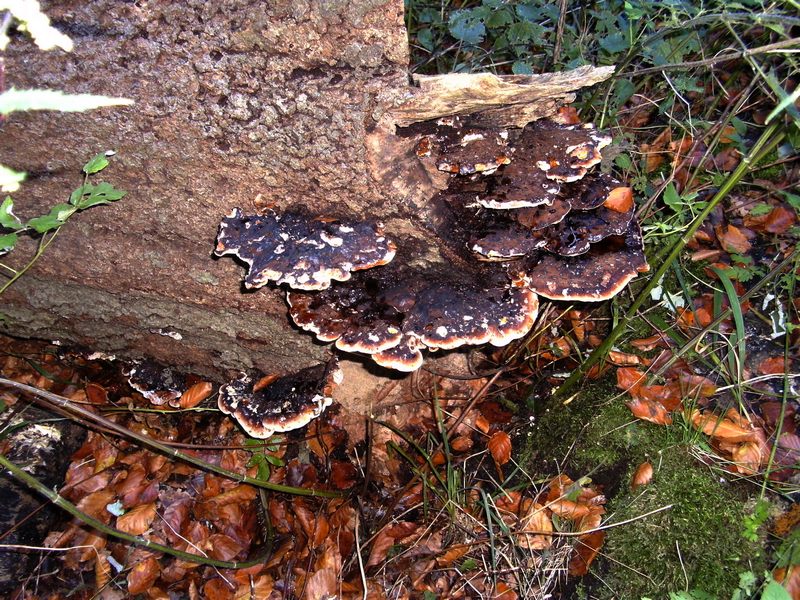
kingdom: Fungi
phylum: Basidiomycota
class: Agaricomycetes
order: Polyporales
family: Ischnodermataceae
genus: Ischnoderma
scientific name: Ischnoderma resinosum
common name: løv-tjæreporesvamp
